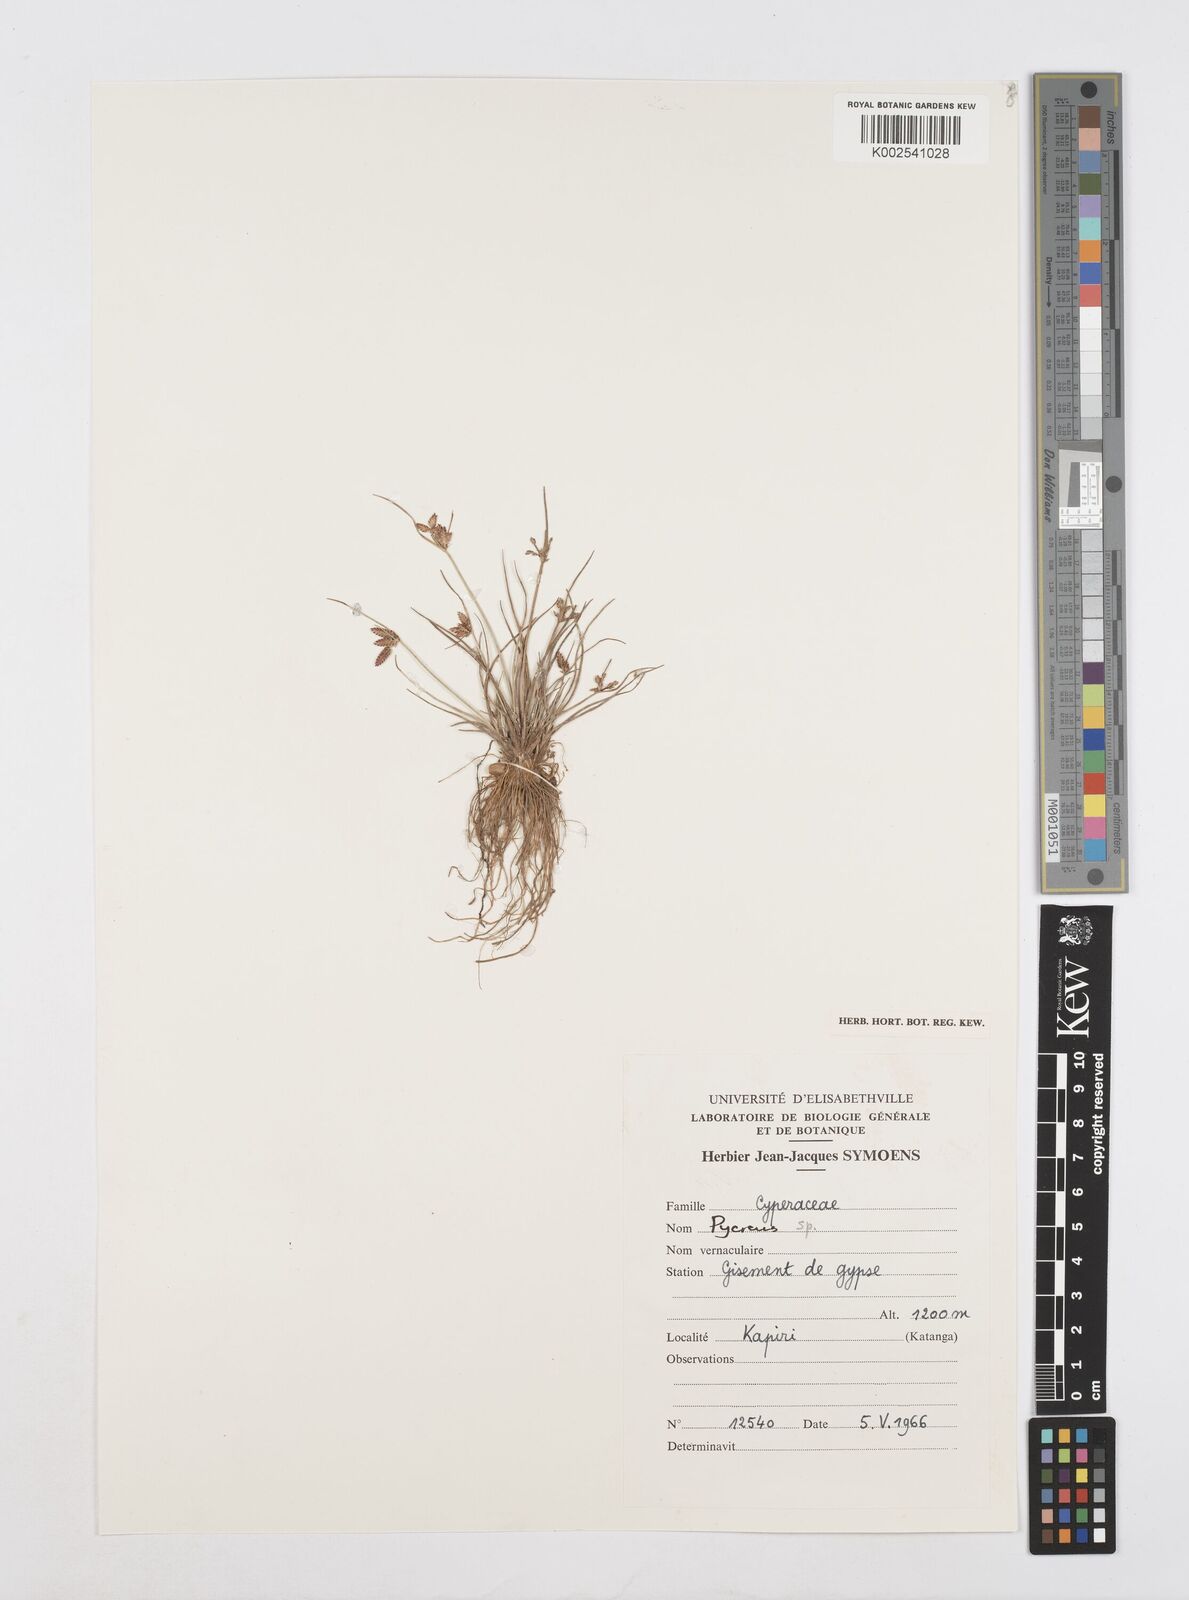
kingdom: Plantae
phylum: Tracheophyta
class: Liliopsida
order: Poales
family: Cyperaceae
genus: Cyperus
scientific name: Cyperus
